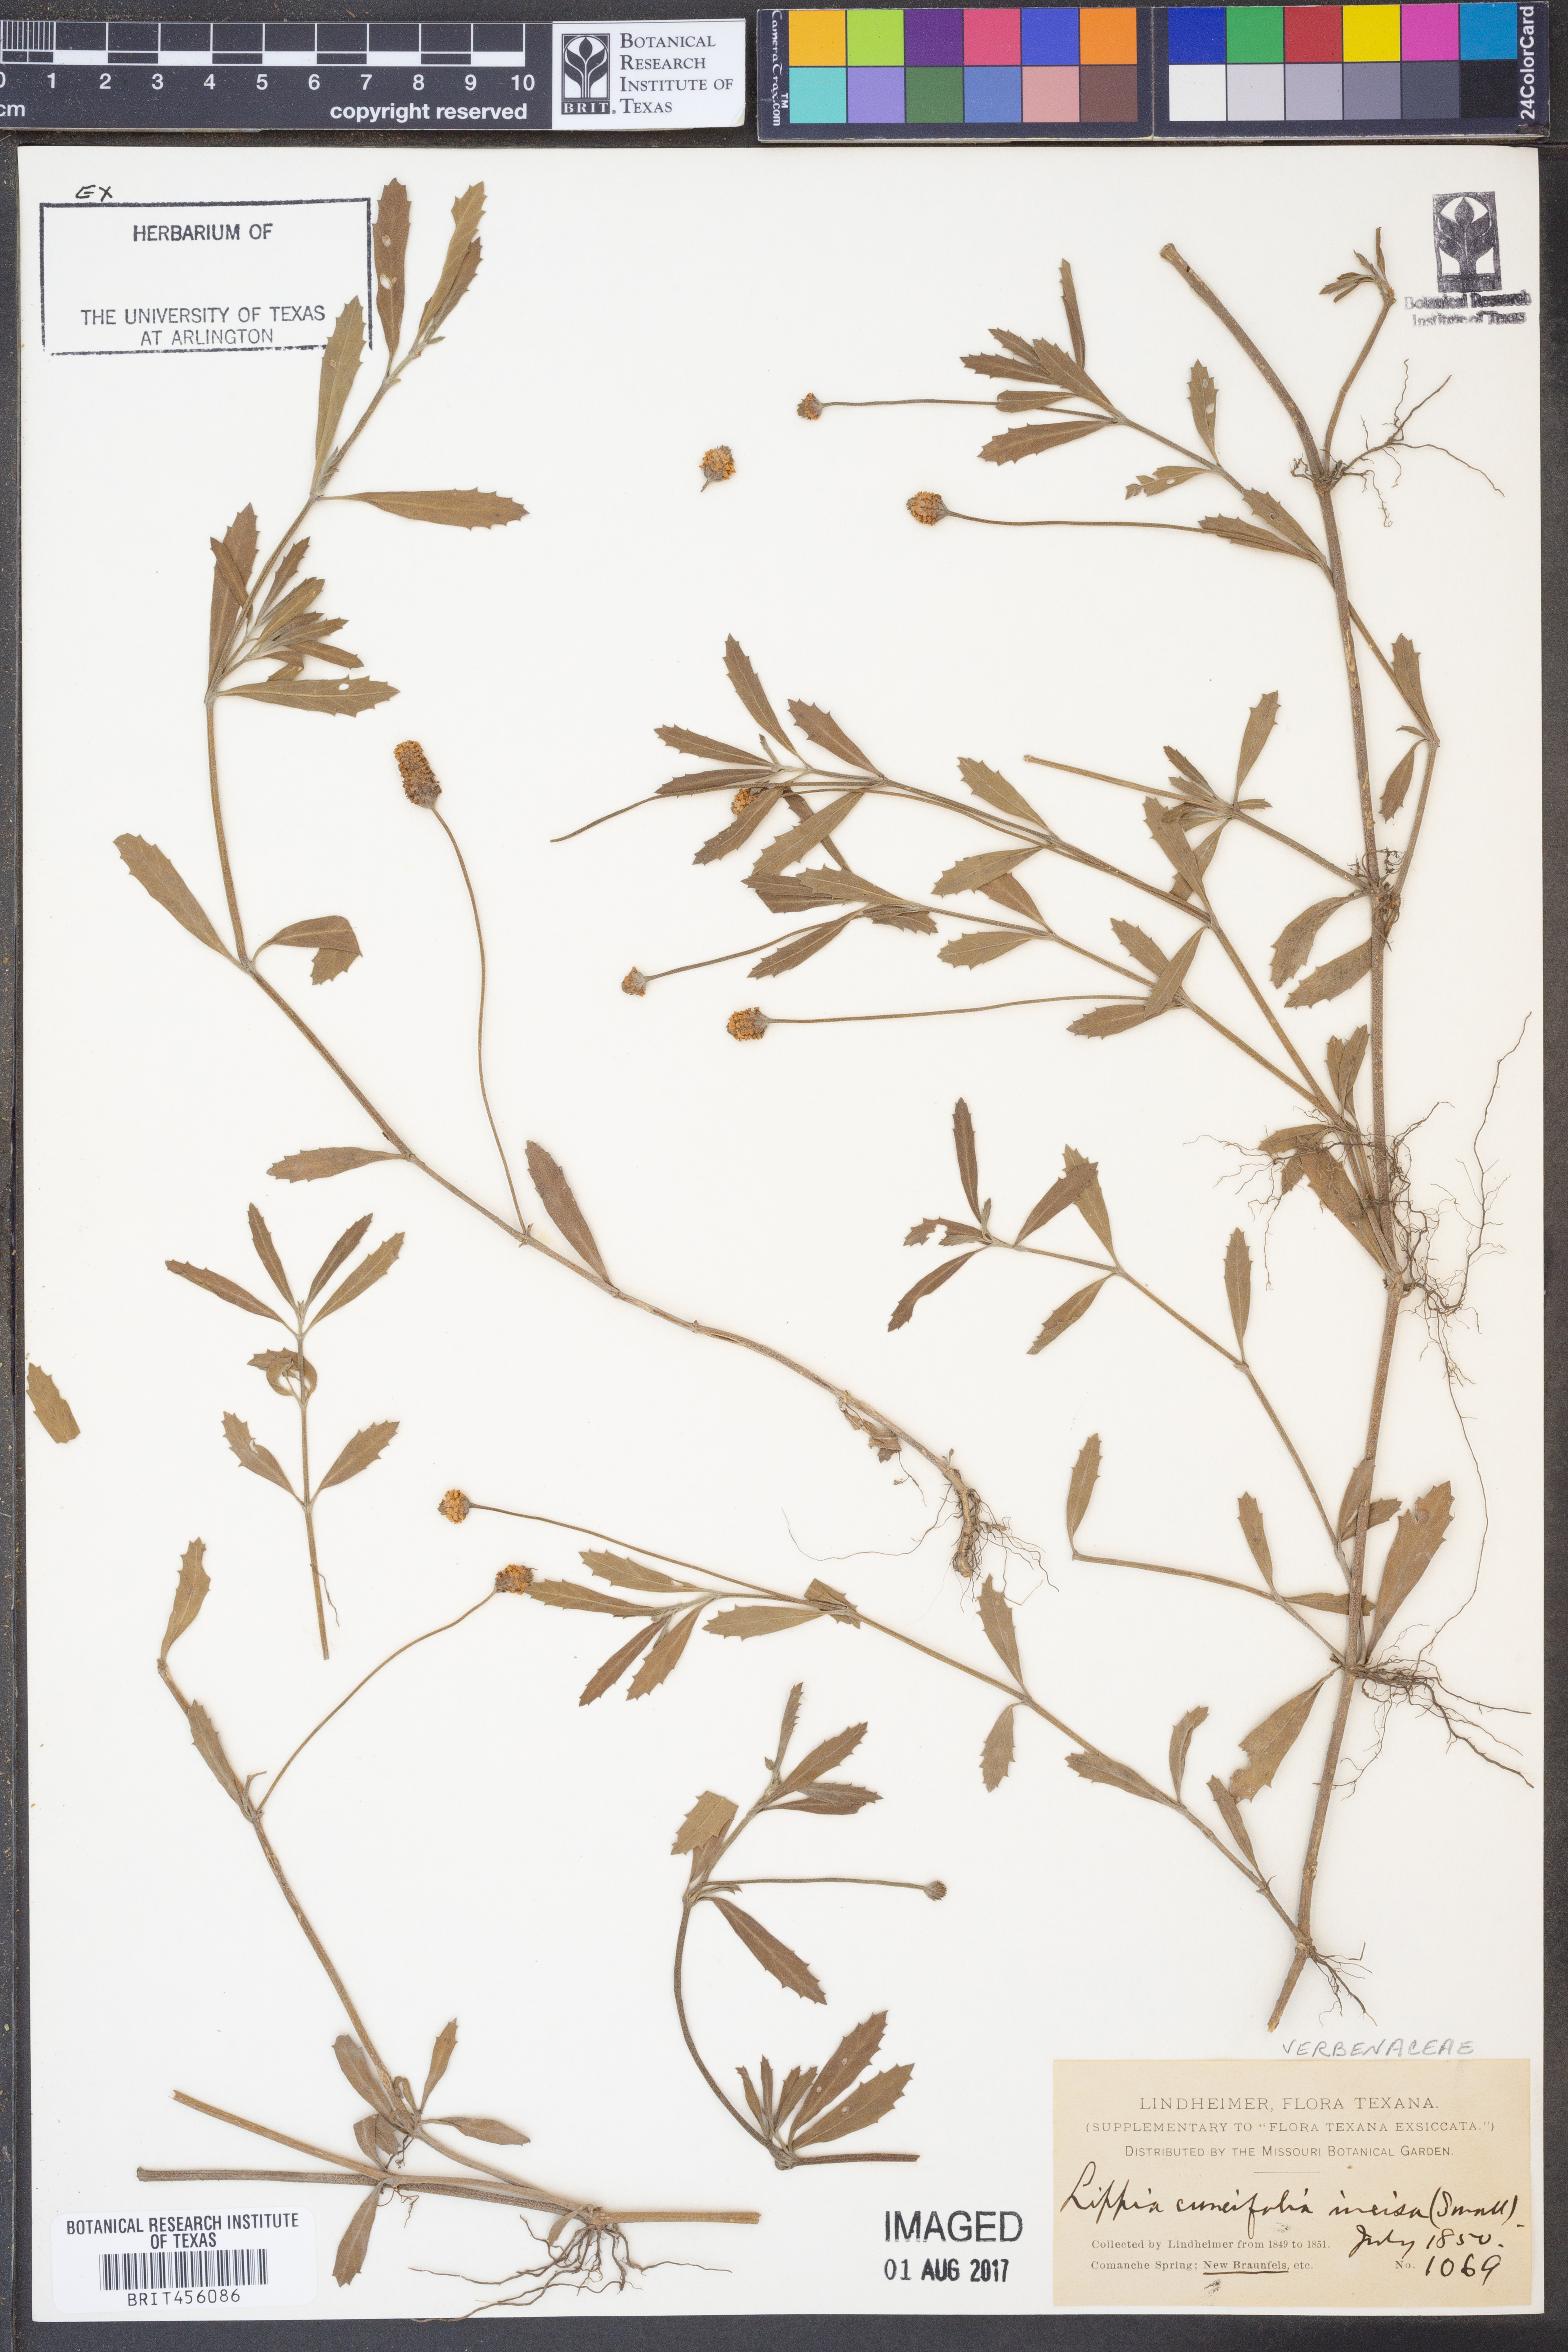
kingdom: Plantae
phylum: Tracheophyta
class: Magnoliopsida
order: Lamiales
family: Verbenaceae
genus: Phyla
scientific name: Phyla nodiflora
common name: Frogfruit
